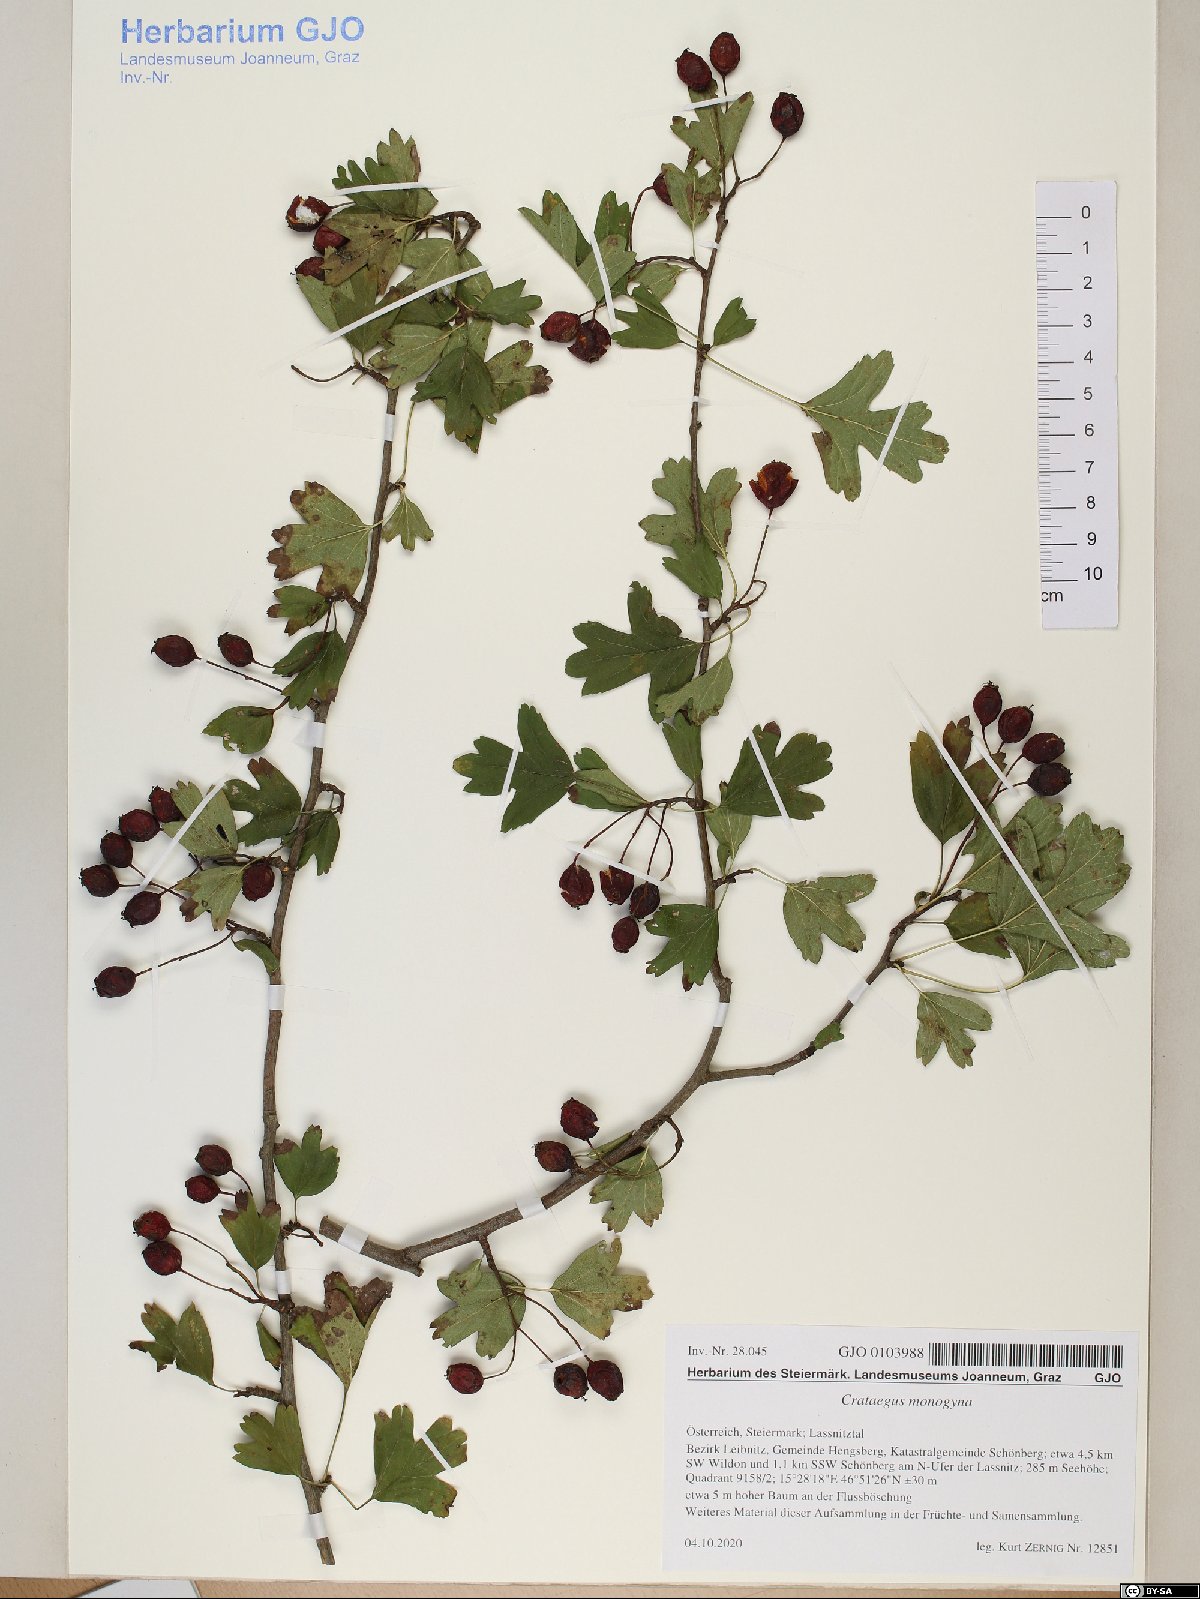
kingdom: Plantae
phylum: Tracheophyta
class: Magnoliopsida
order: Rosales
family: Rosaceae
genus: Crataegus
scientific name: Crataegus monogyna
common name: Hawthorn
